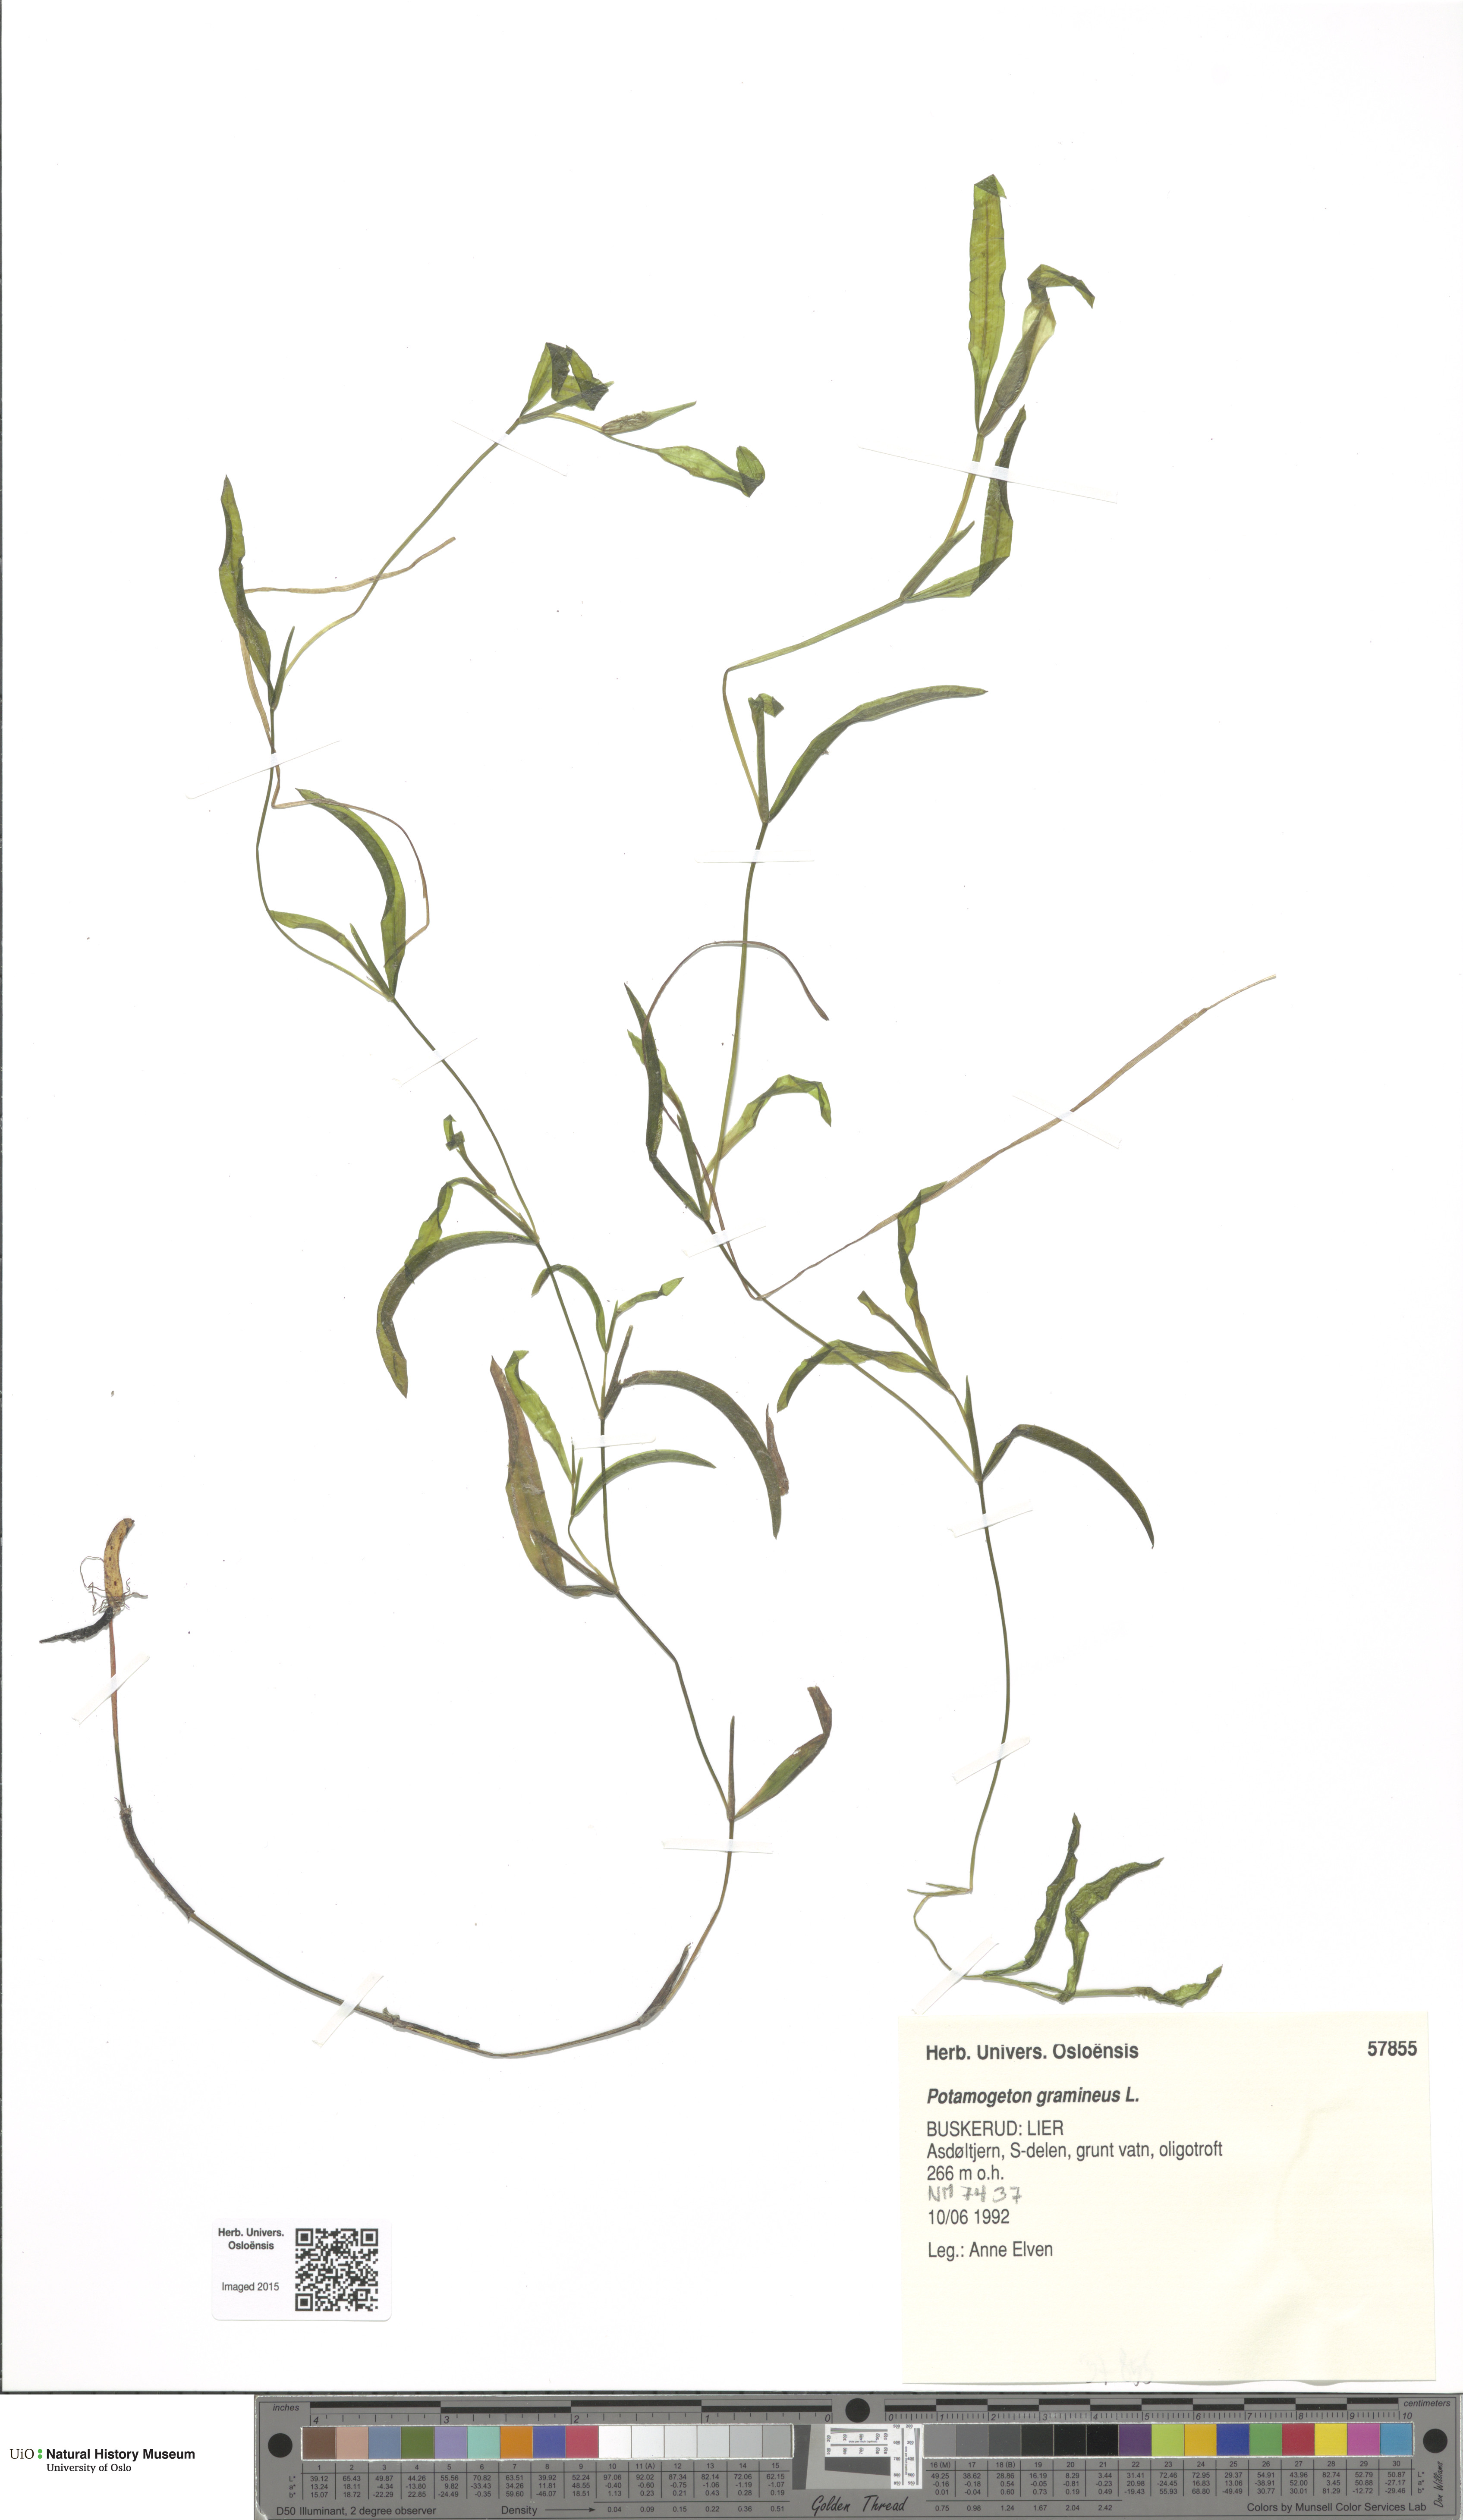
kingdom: Plantae
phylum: Tracheophyta
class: Liliopsida
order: Alismatales
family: Potamogetonaceae
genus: Potamogeton
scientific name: Potamogeton gramineus
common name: Various-leaved pondweed
